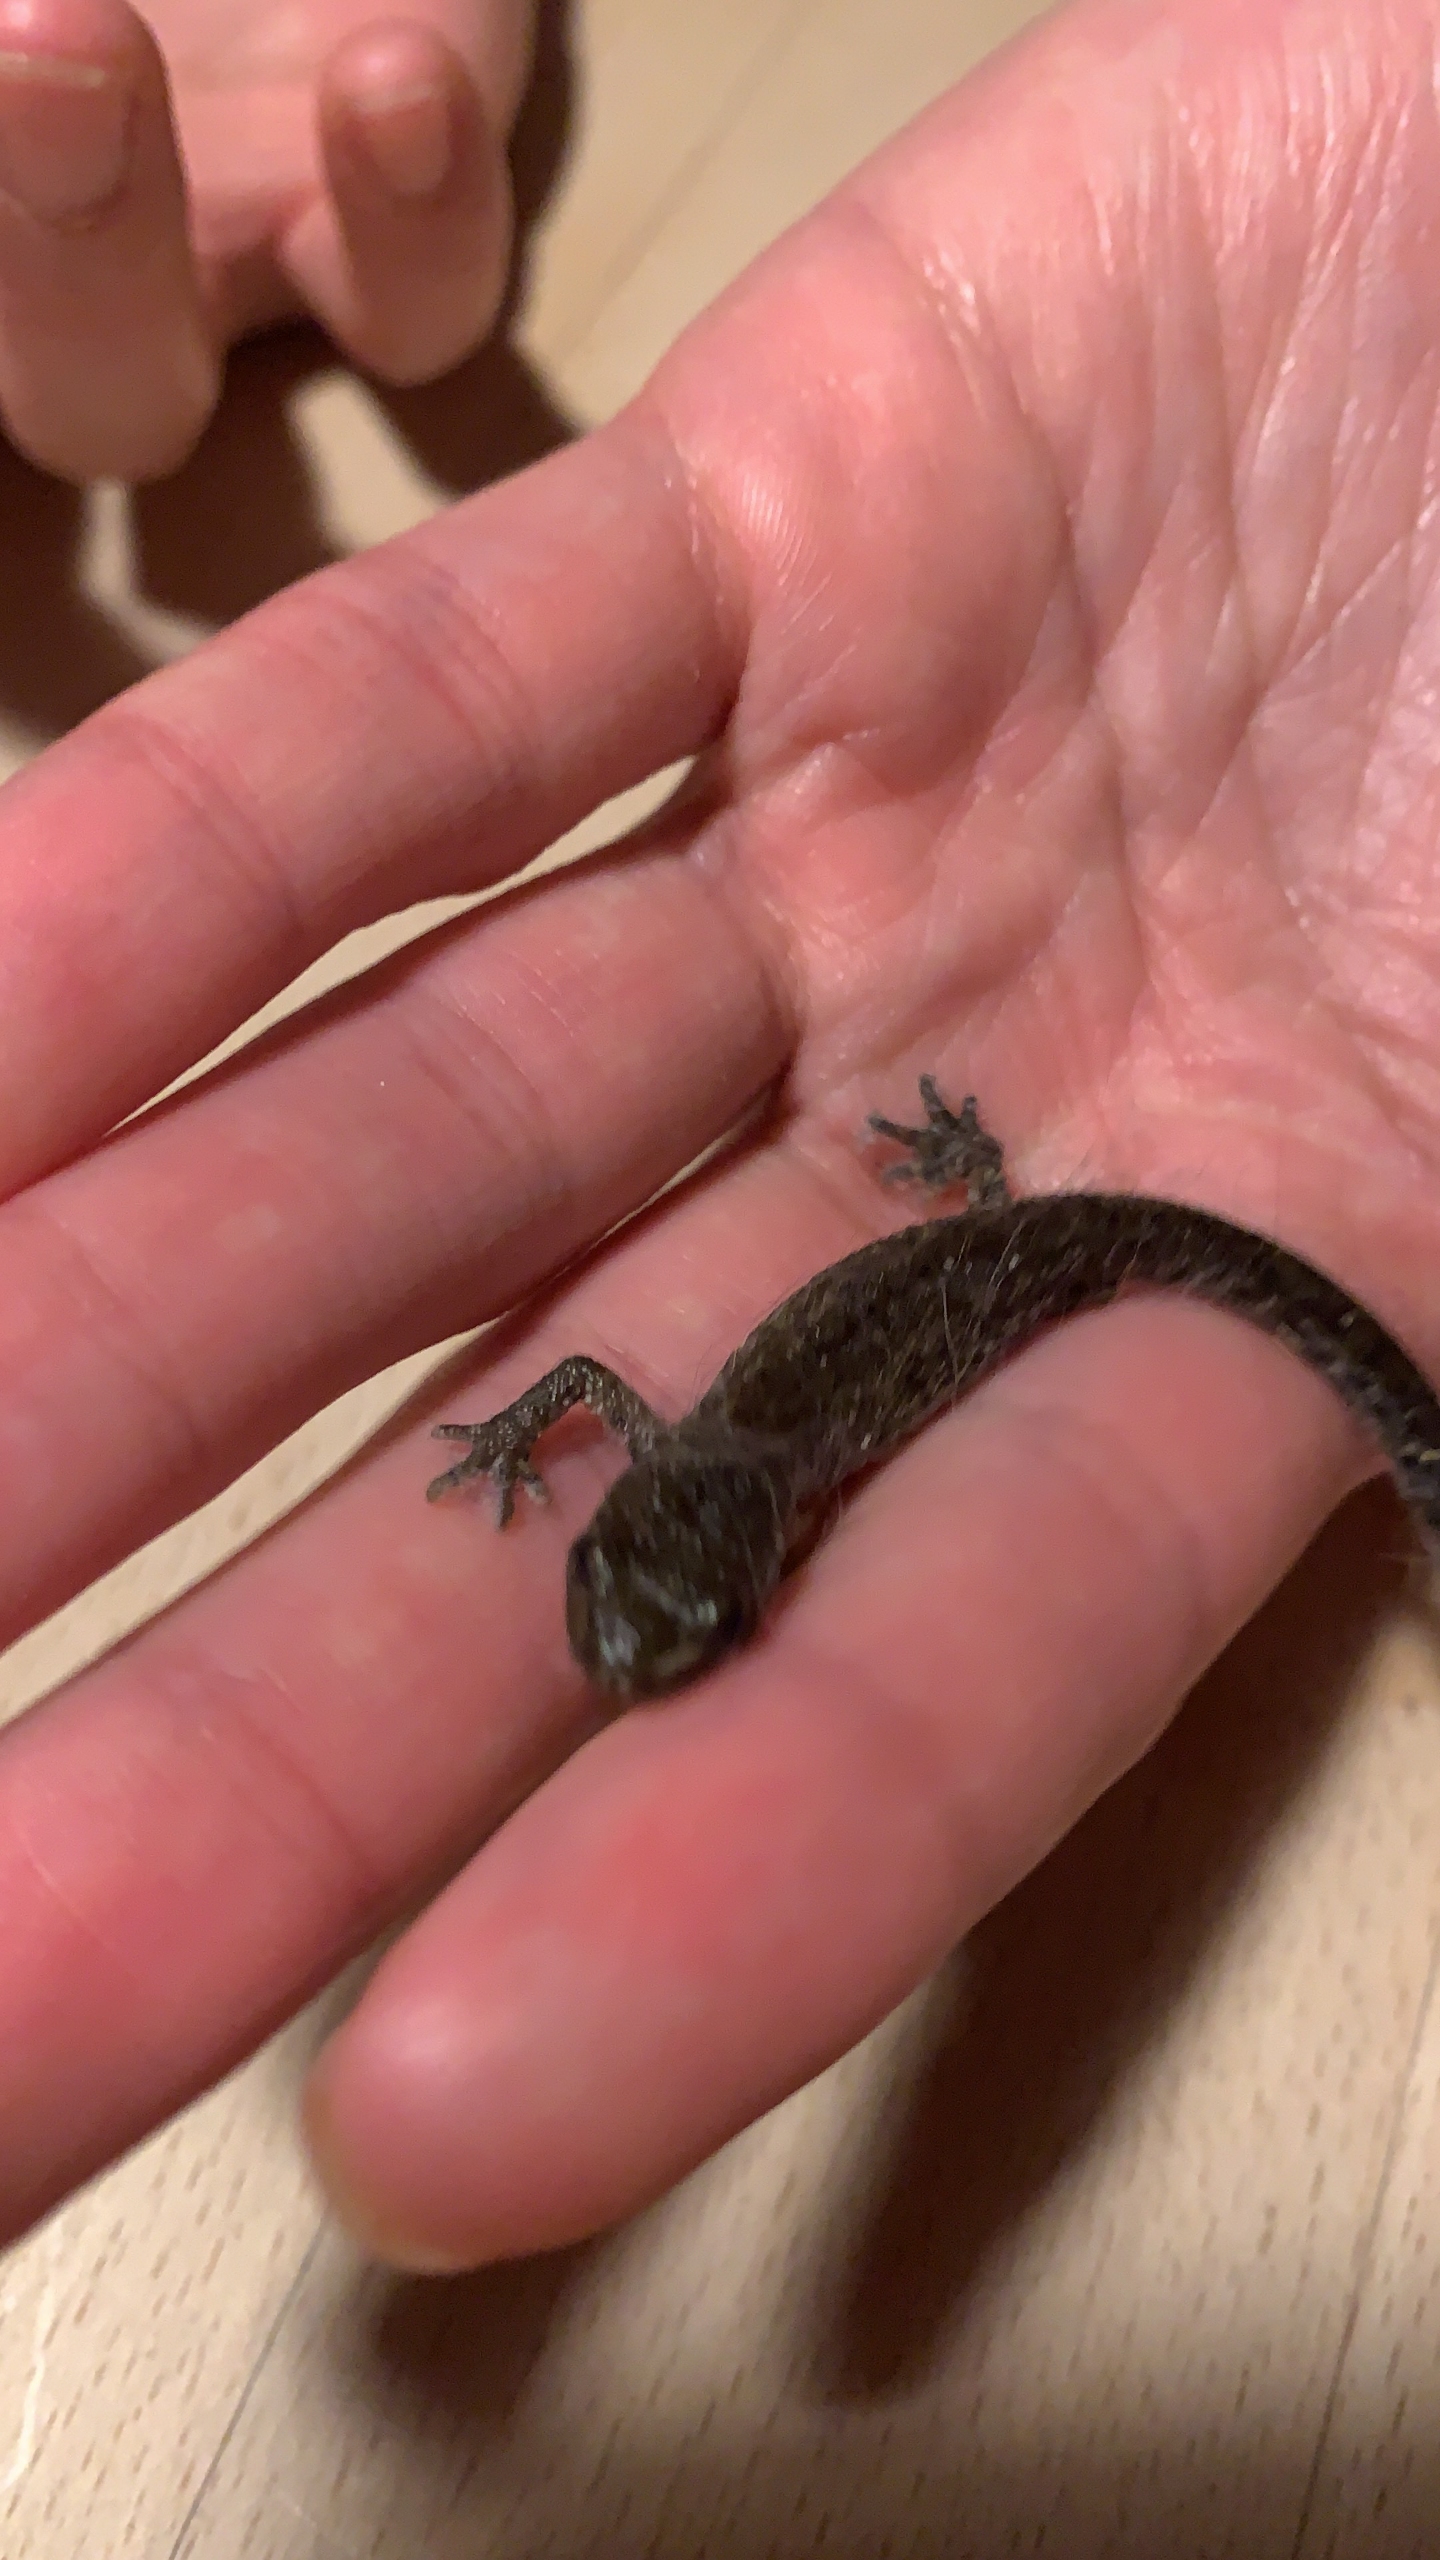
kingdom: Animalia
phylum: Chordata
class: Amphibia
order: Caudata
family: Salamandridae
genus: Triturus
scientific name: Triturus cristatus
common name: Stor vandsalamander
